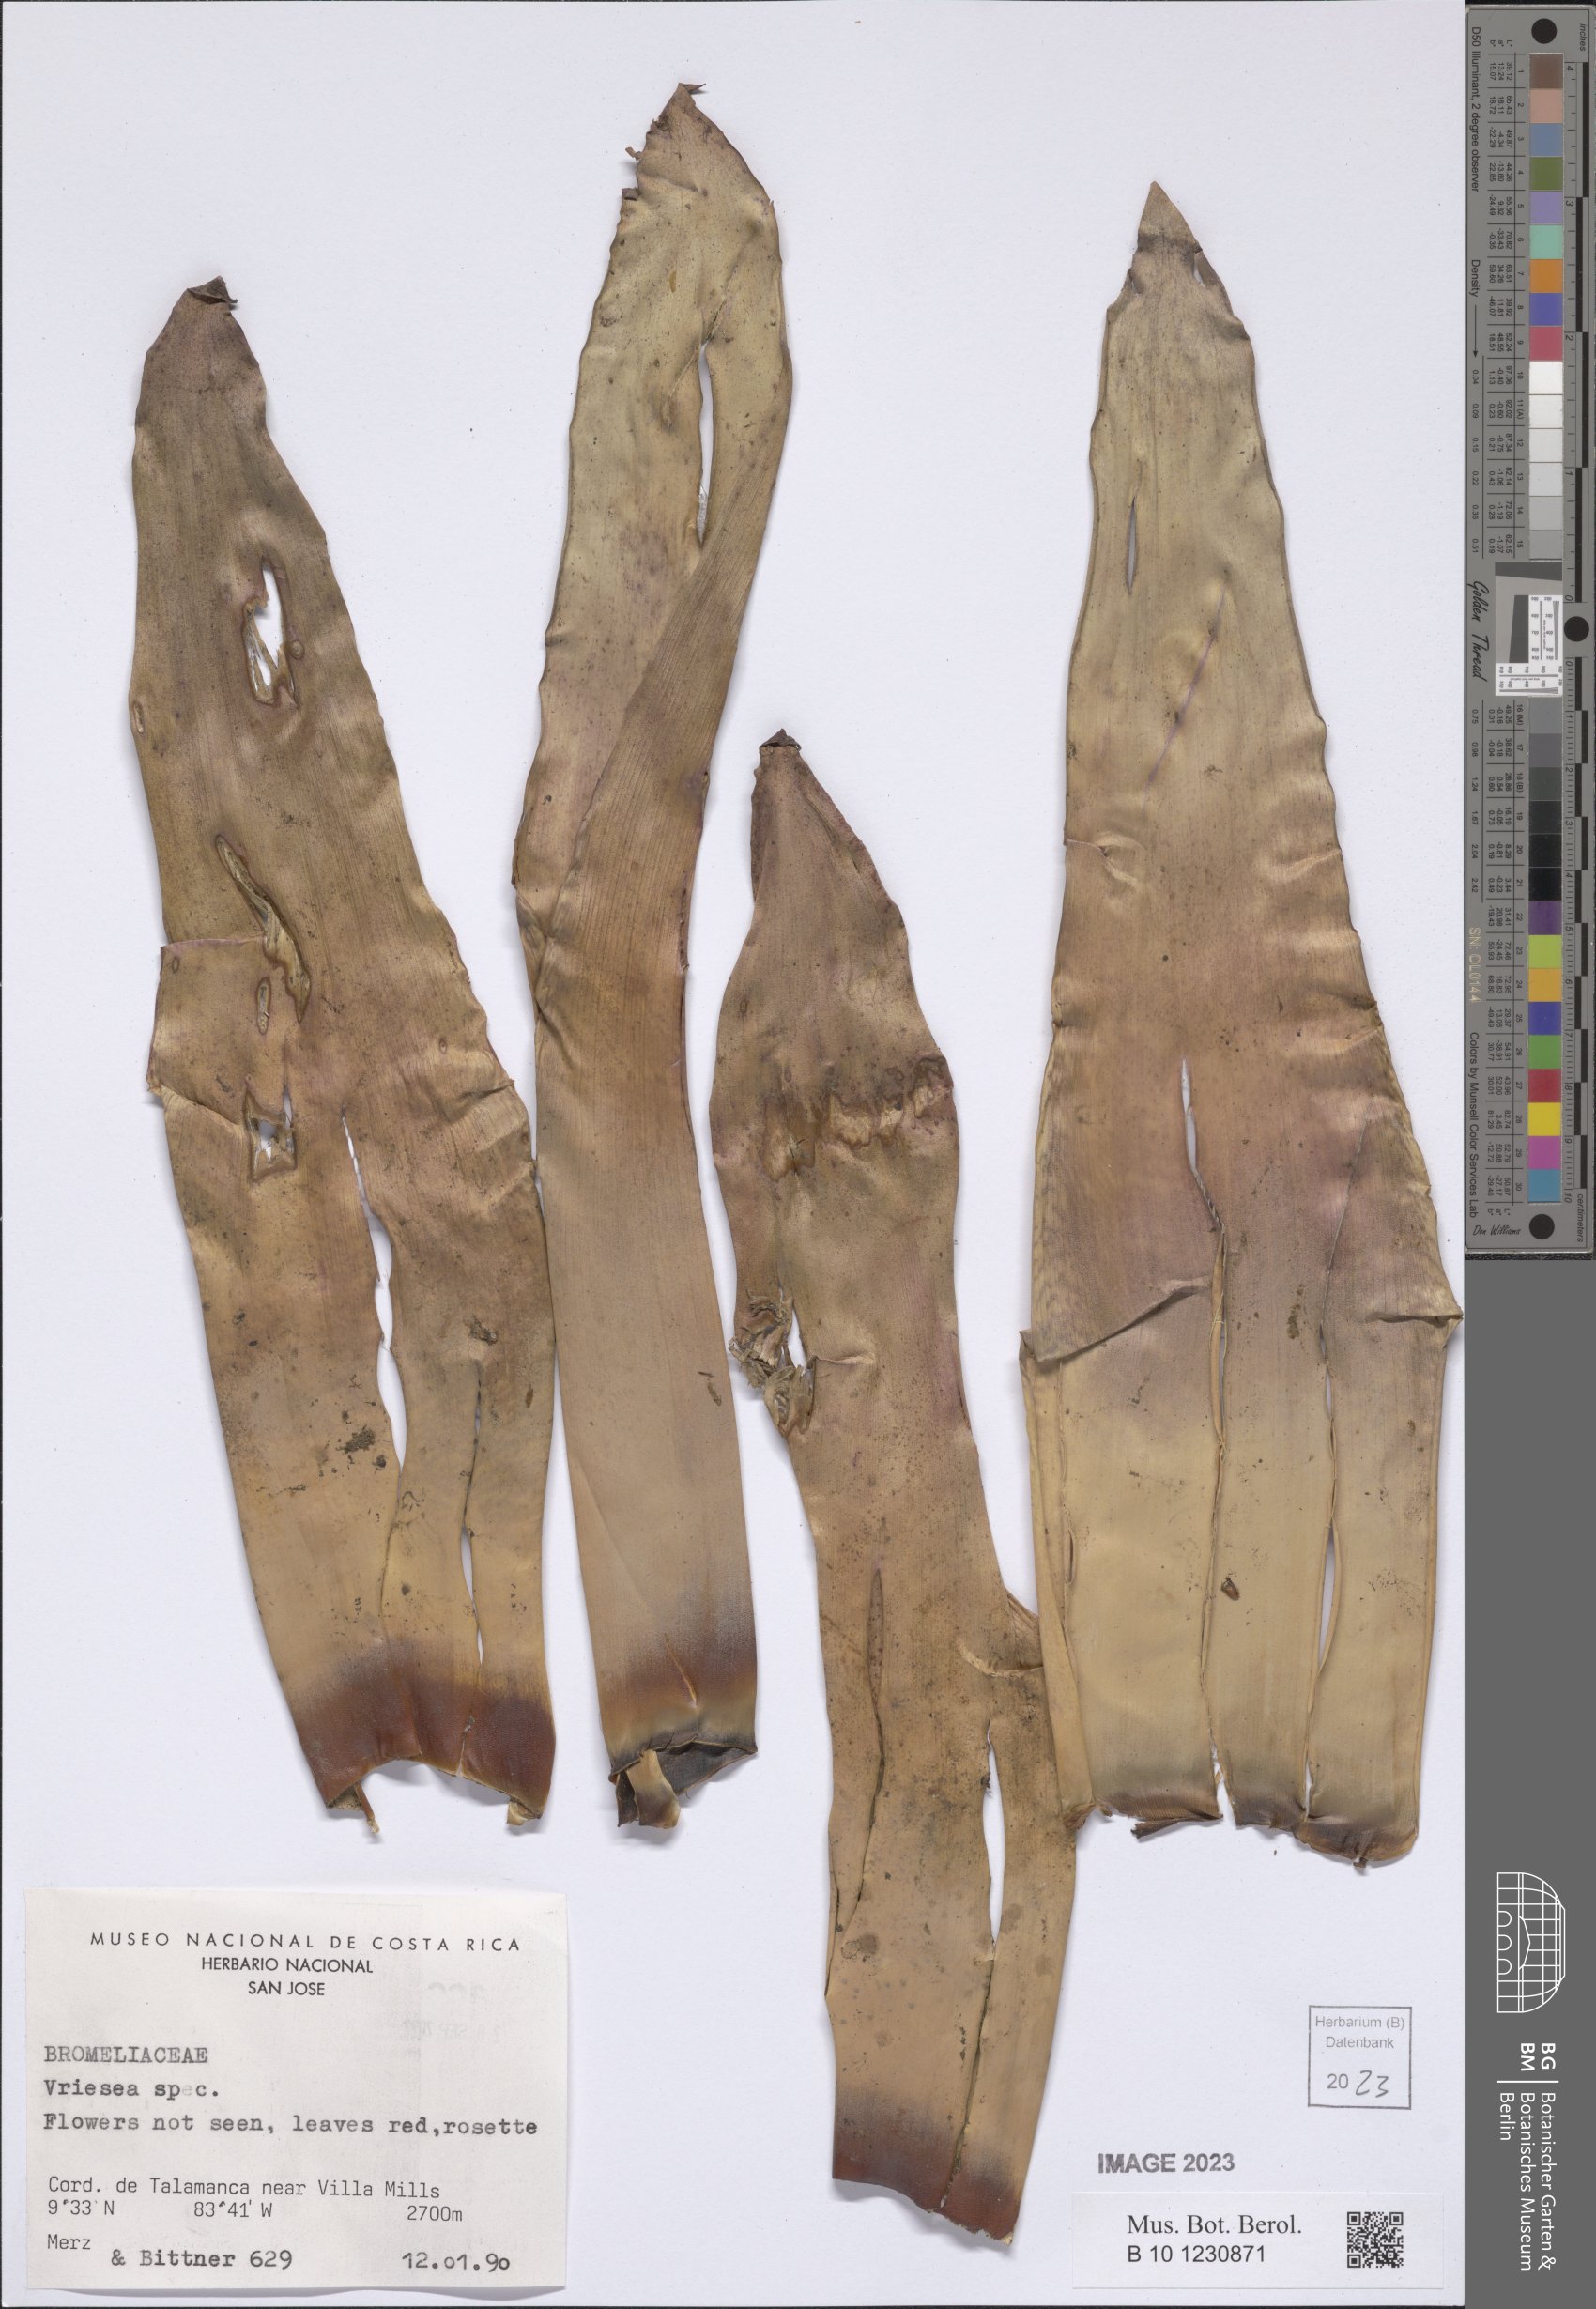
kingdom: Plantae
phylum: Tracheophyta
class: Liliopsida
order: Poales
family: Bromeliaceae
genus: Vriesea
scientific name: Vriesea
